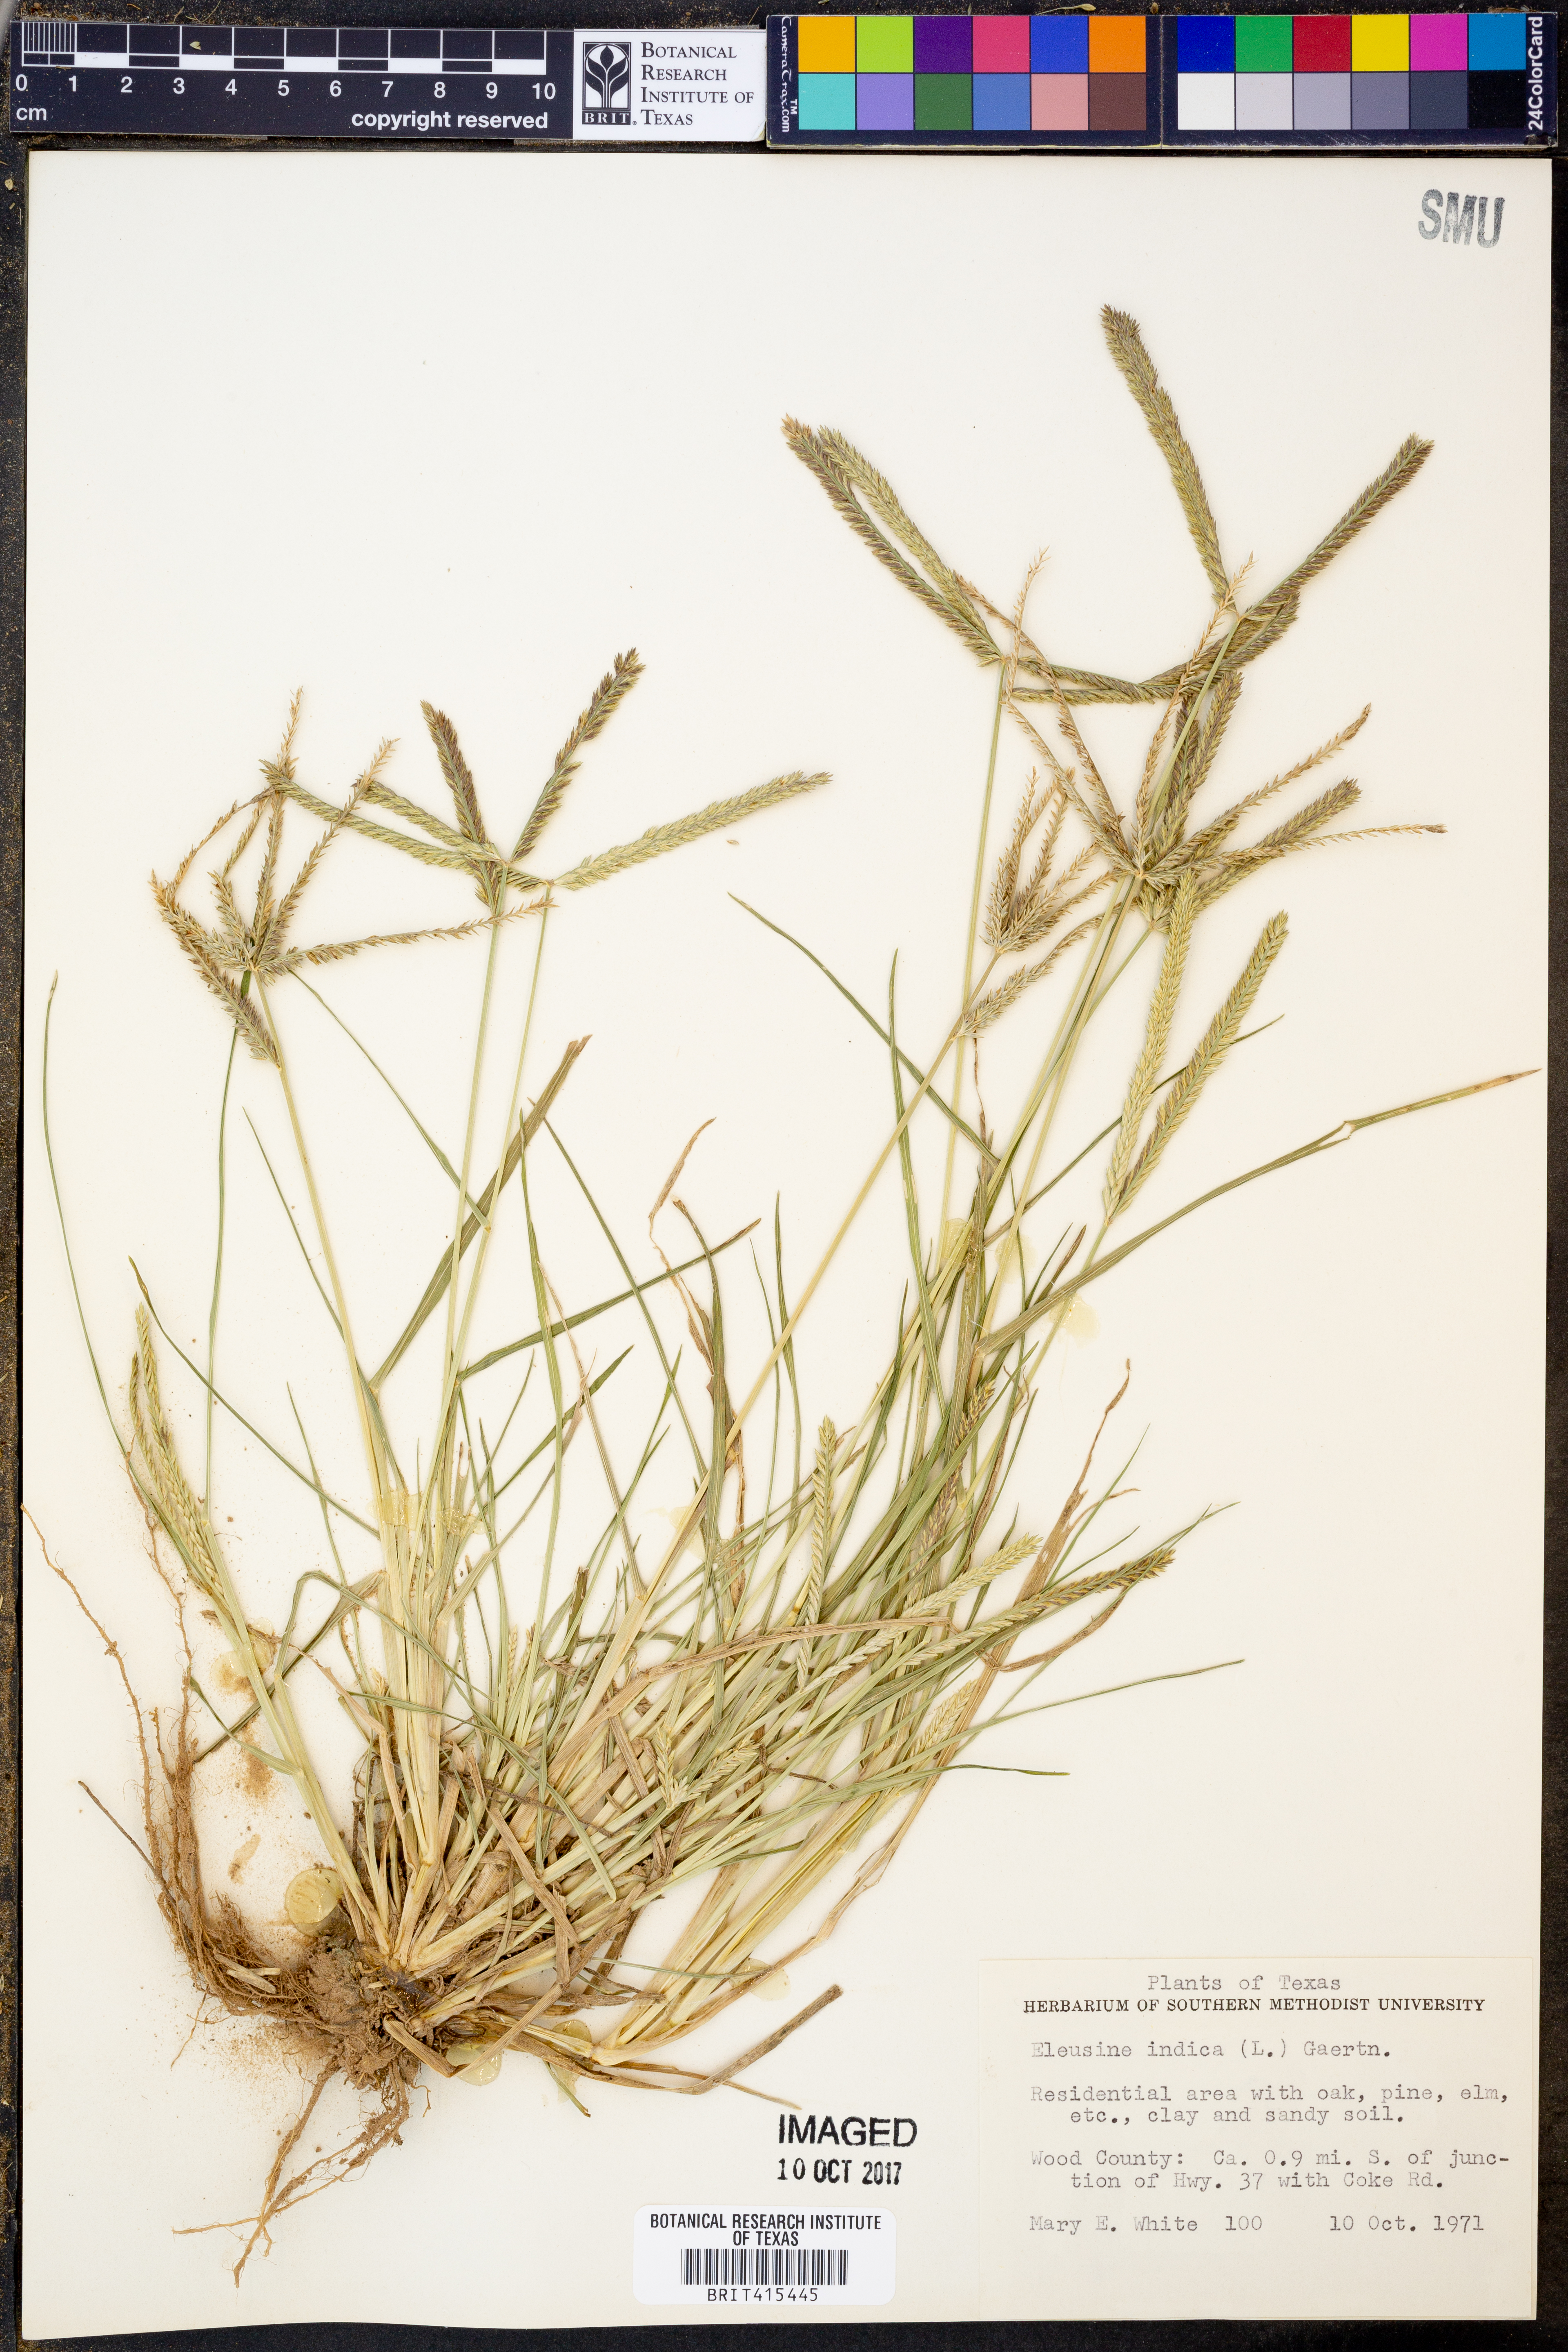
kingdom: Plantae
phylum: Tracheophyta
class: Liliopsida
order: Poales
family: Poaceae
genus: Eleusine
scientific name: Eleusine indica
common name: Yard-grass
